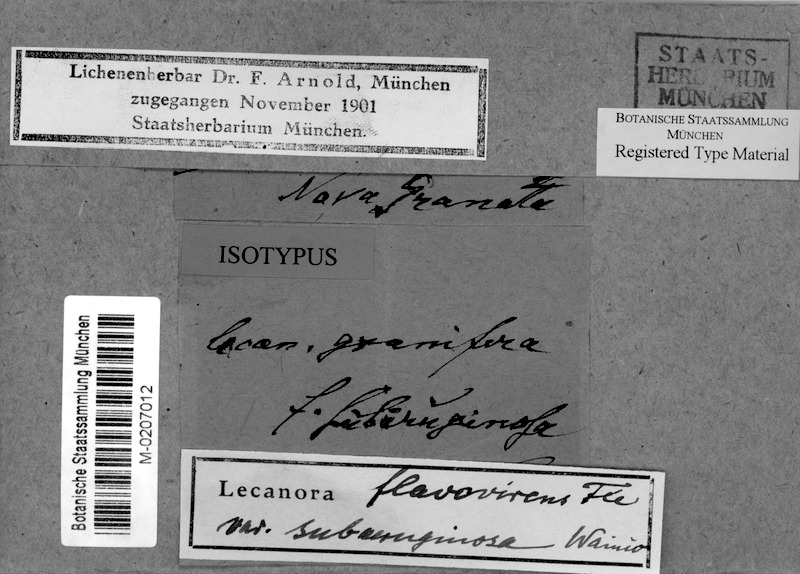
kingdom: Fungi
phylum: Ascomycota
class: Lecanoromycetes
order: Lecanorales
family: Lecanoraceae
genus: Vainionora
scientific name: Vainionora warmingii
